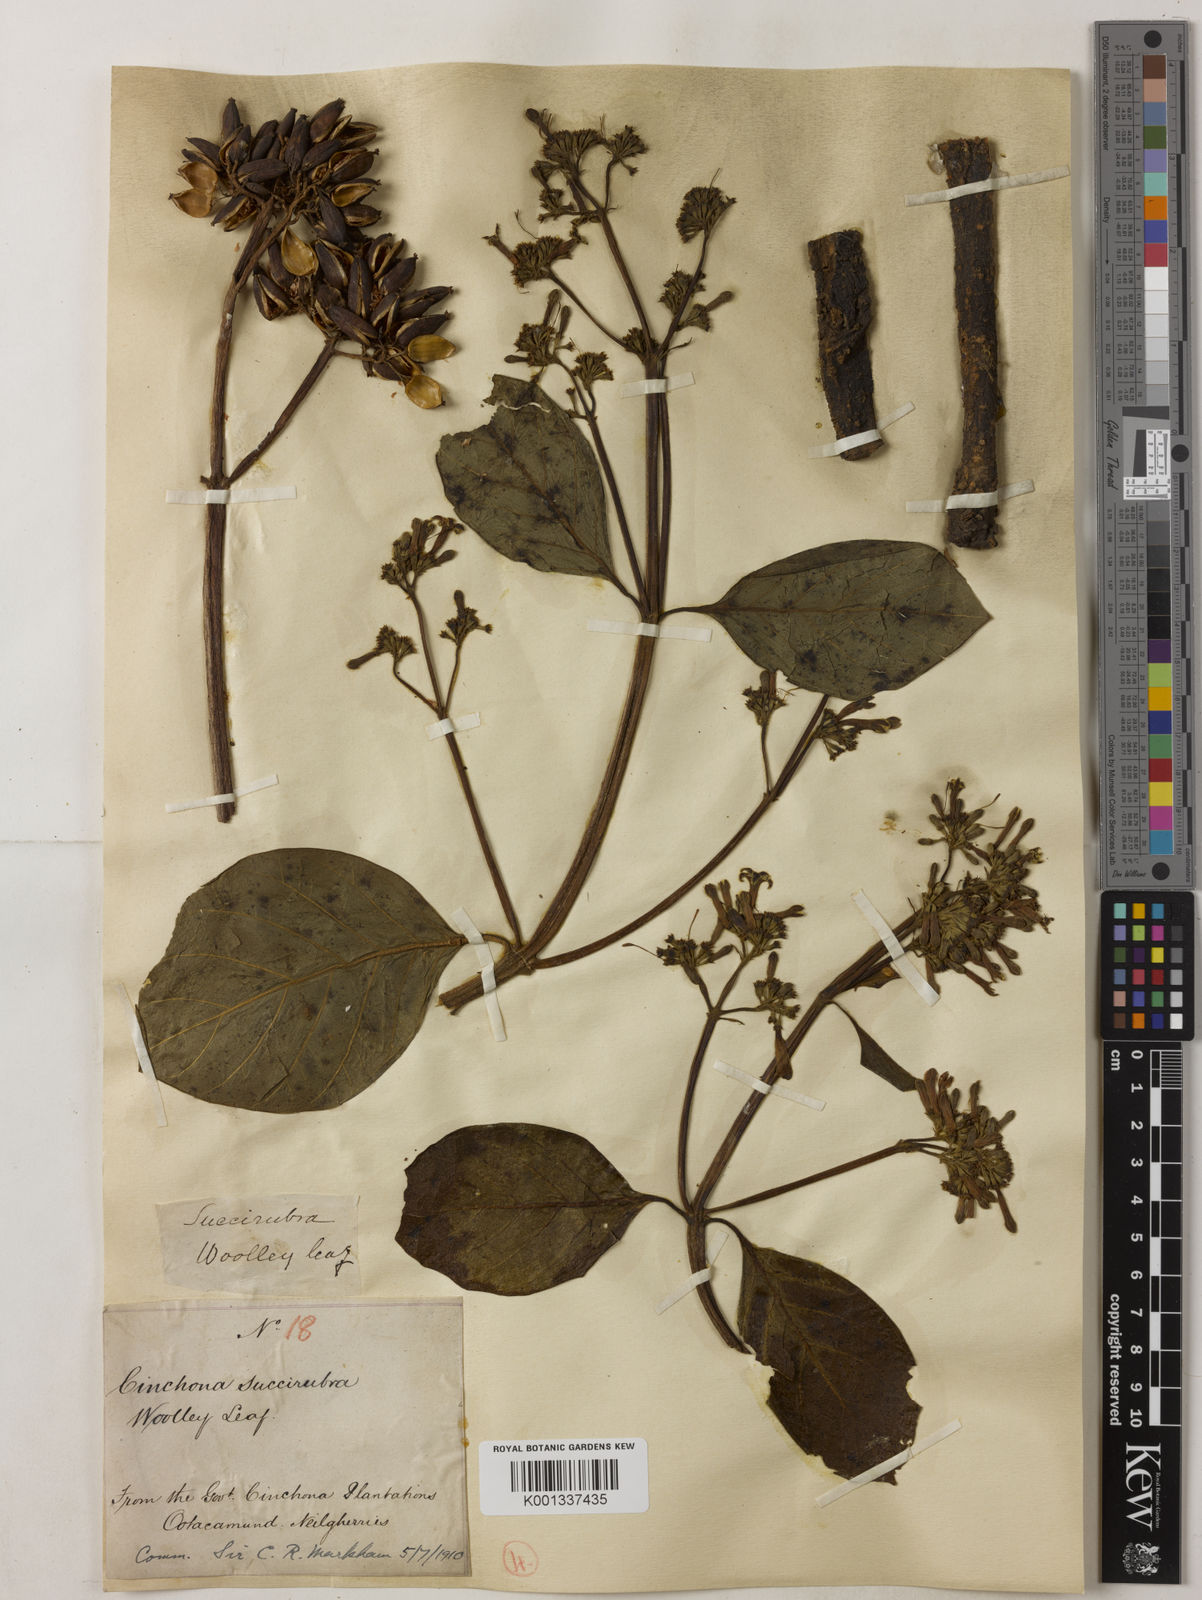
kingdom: Plantae
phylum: Tracheophyta
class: Magnoliopsida
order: Gentianales
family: Rubiaceae
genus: Cinchona
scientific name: Cinchona pubescens
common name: Quinine
